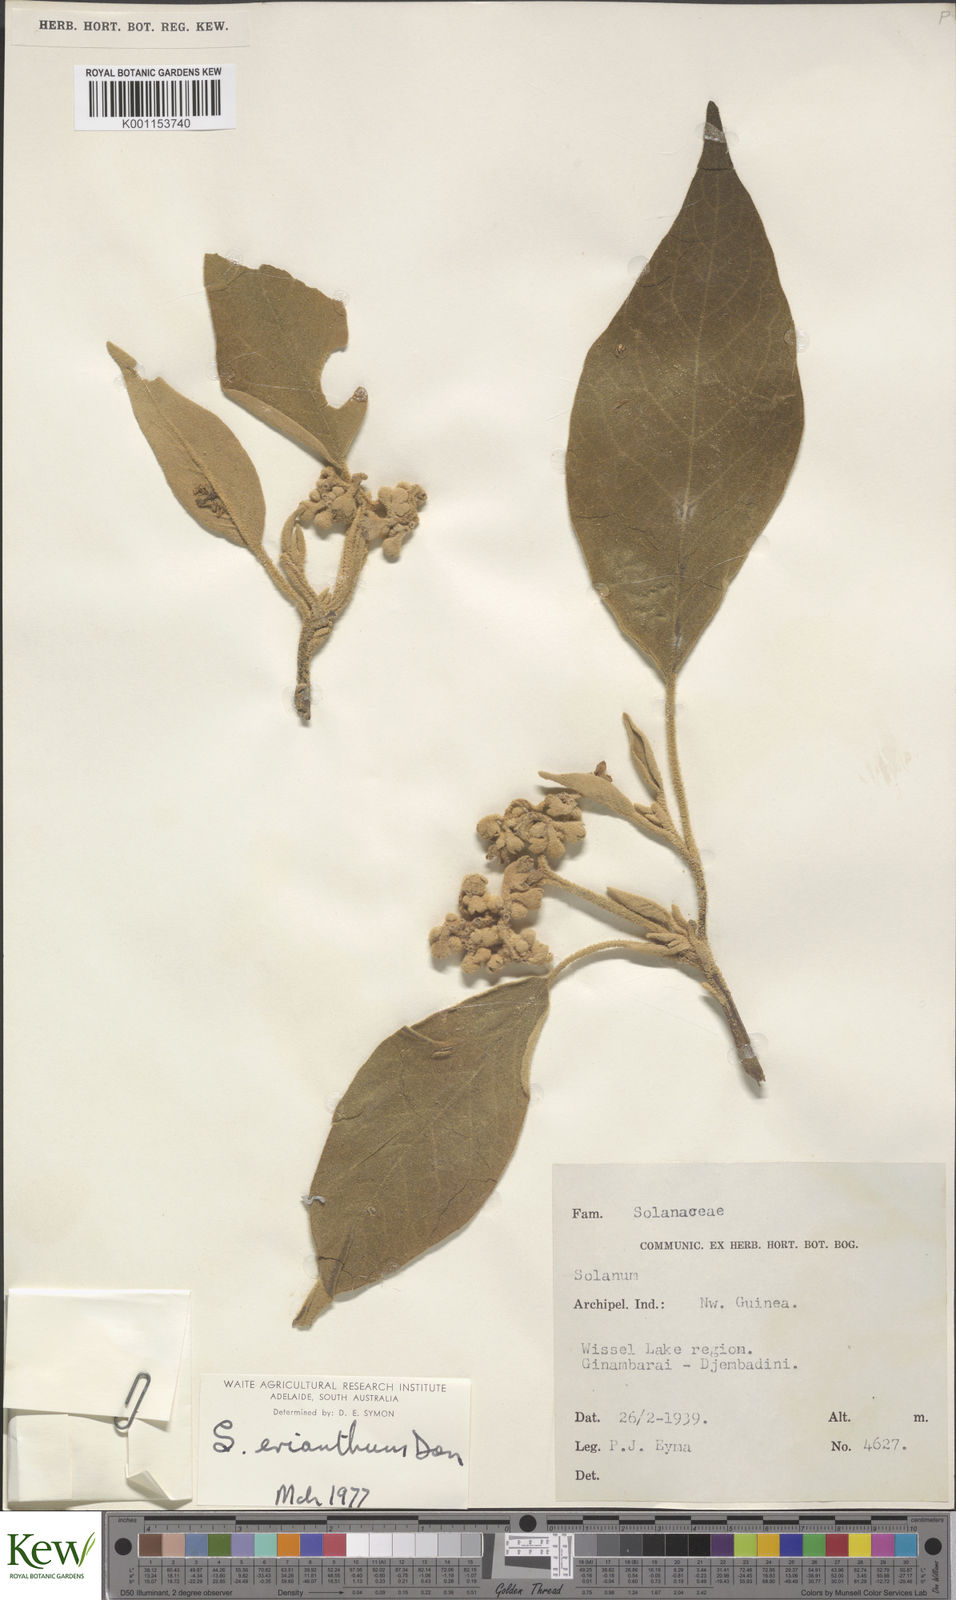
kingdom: Plantae
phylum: Tracheophyta
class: Magnoliopsida
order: Solanales
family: Solanaceae
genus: Solanum
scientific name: Solanum erianthum
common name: Tobacco-tree
